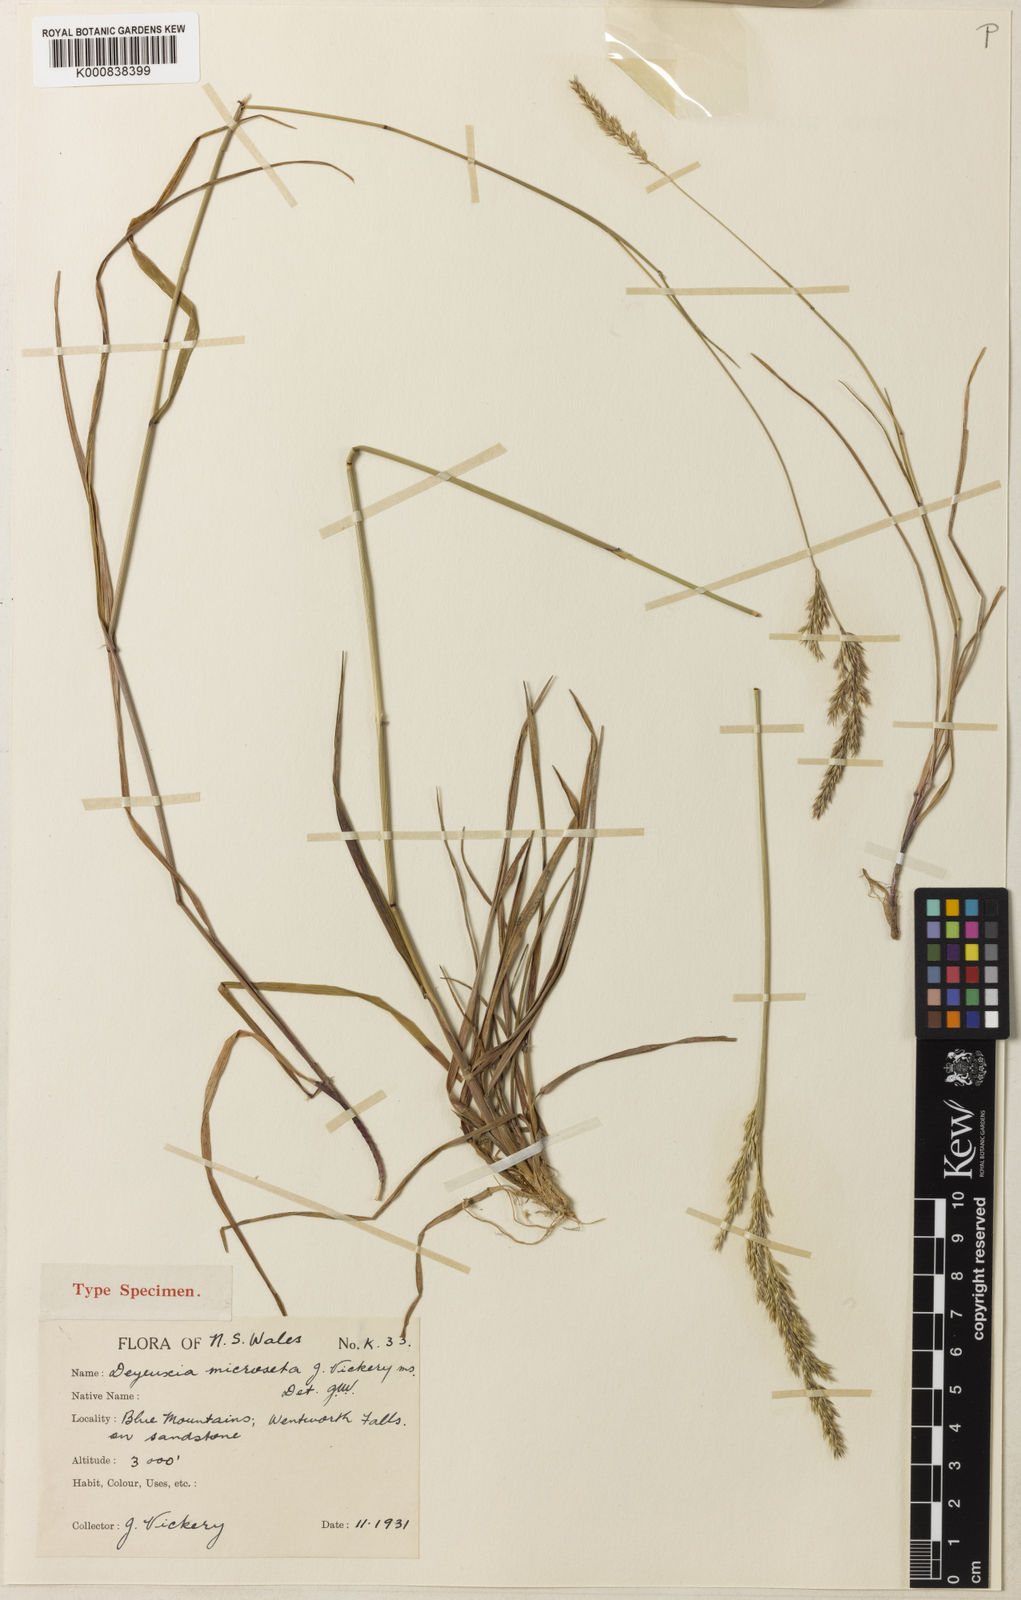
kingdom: Plantae
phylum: Tracheophyta
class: Liliopsida
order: Poales
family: Poaceae
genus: Calamagrostis
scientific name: Calamagrostis microseta
